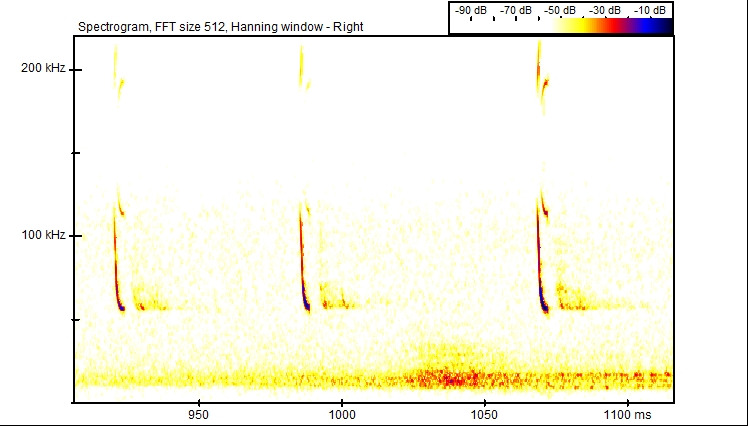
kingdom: Animalia
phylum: Chordata
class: Mammalia
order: Chiroptera
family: Vespertilionidae
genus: Pipistrellus
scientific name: Pipistrellus pygmaeus
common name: Dværgflagermus
